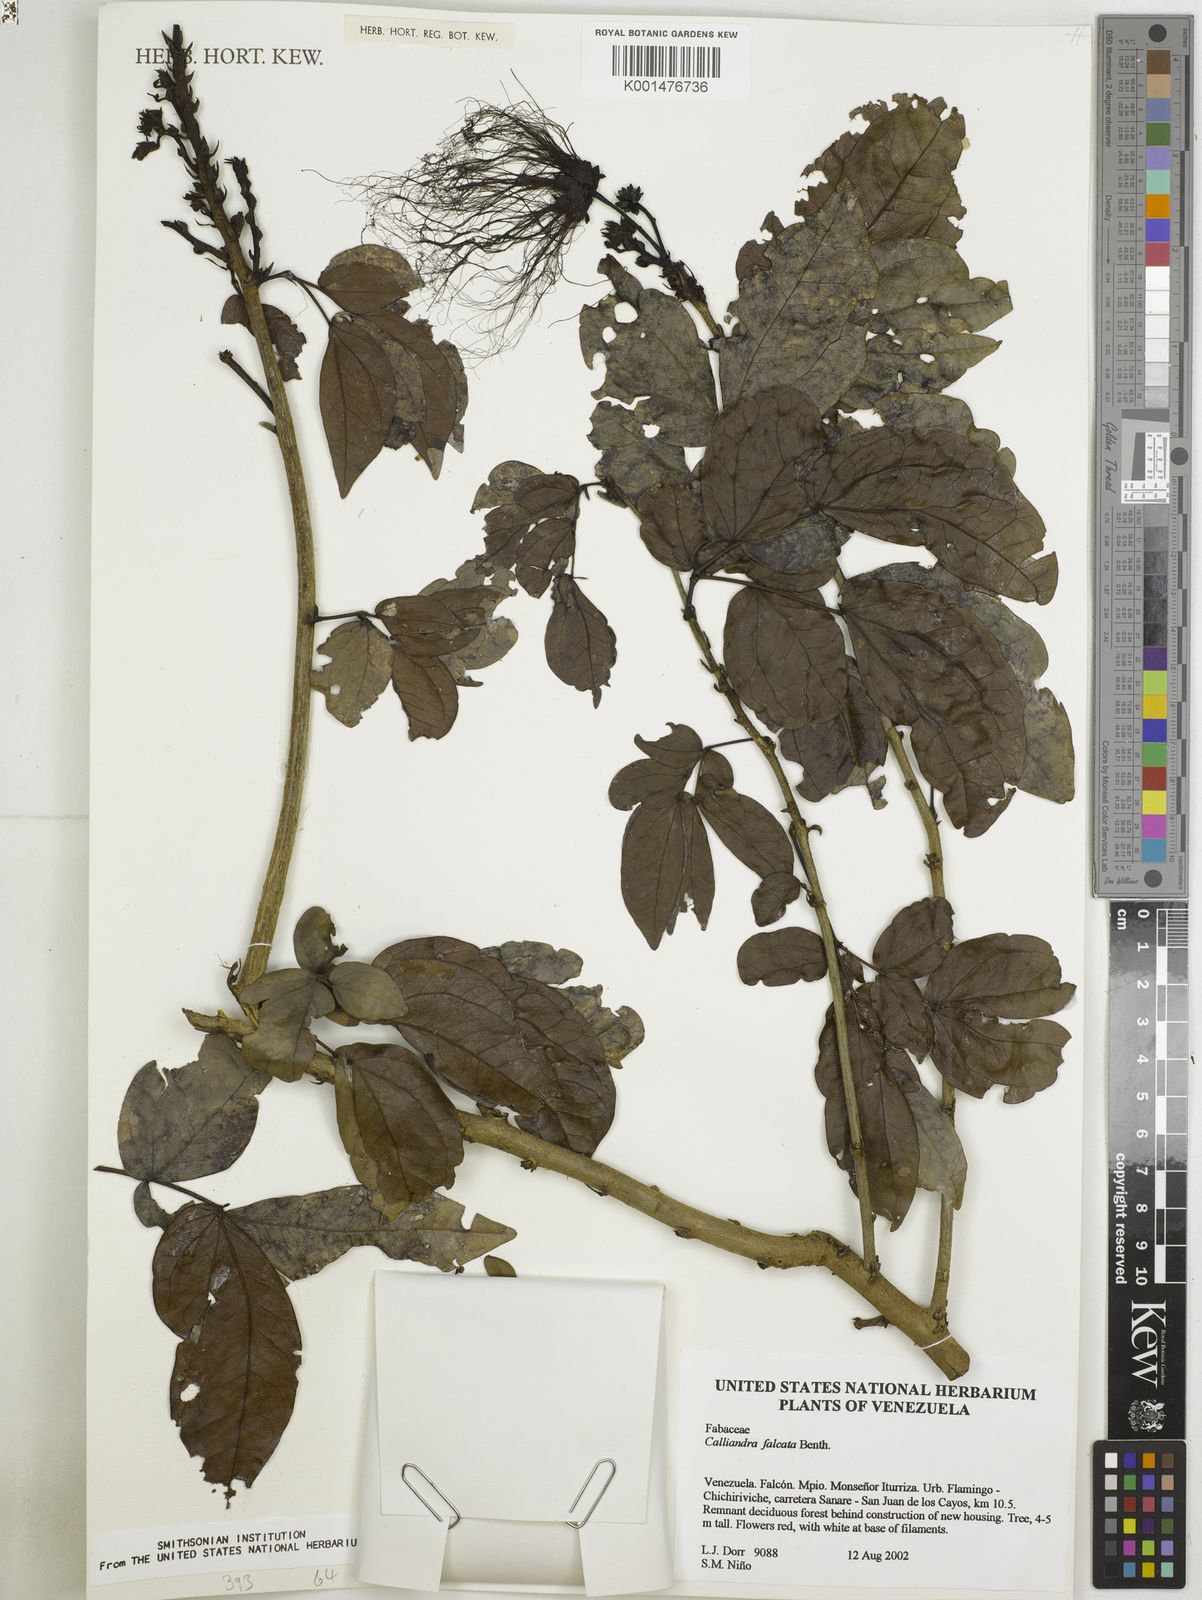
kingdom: Plantae
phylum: Tracheophyta
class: Magnoliopsida
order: Fabales
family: Fabaceae
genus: Calliandra
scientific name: Calliandra falcata
